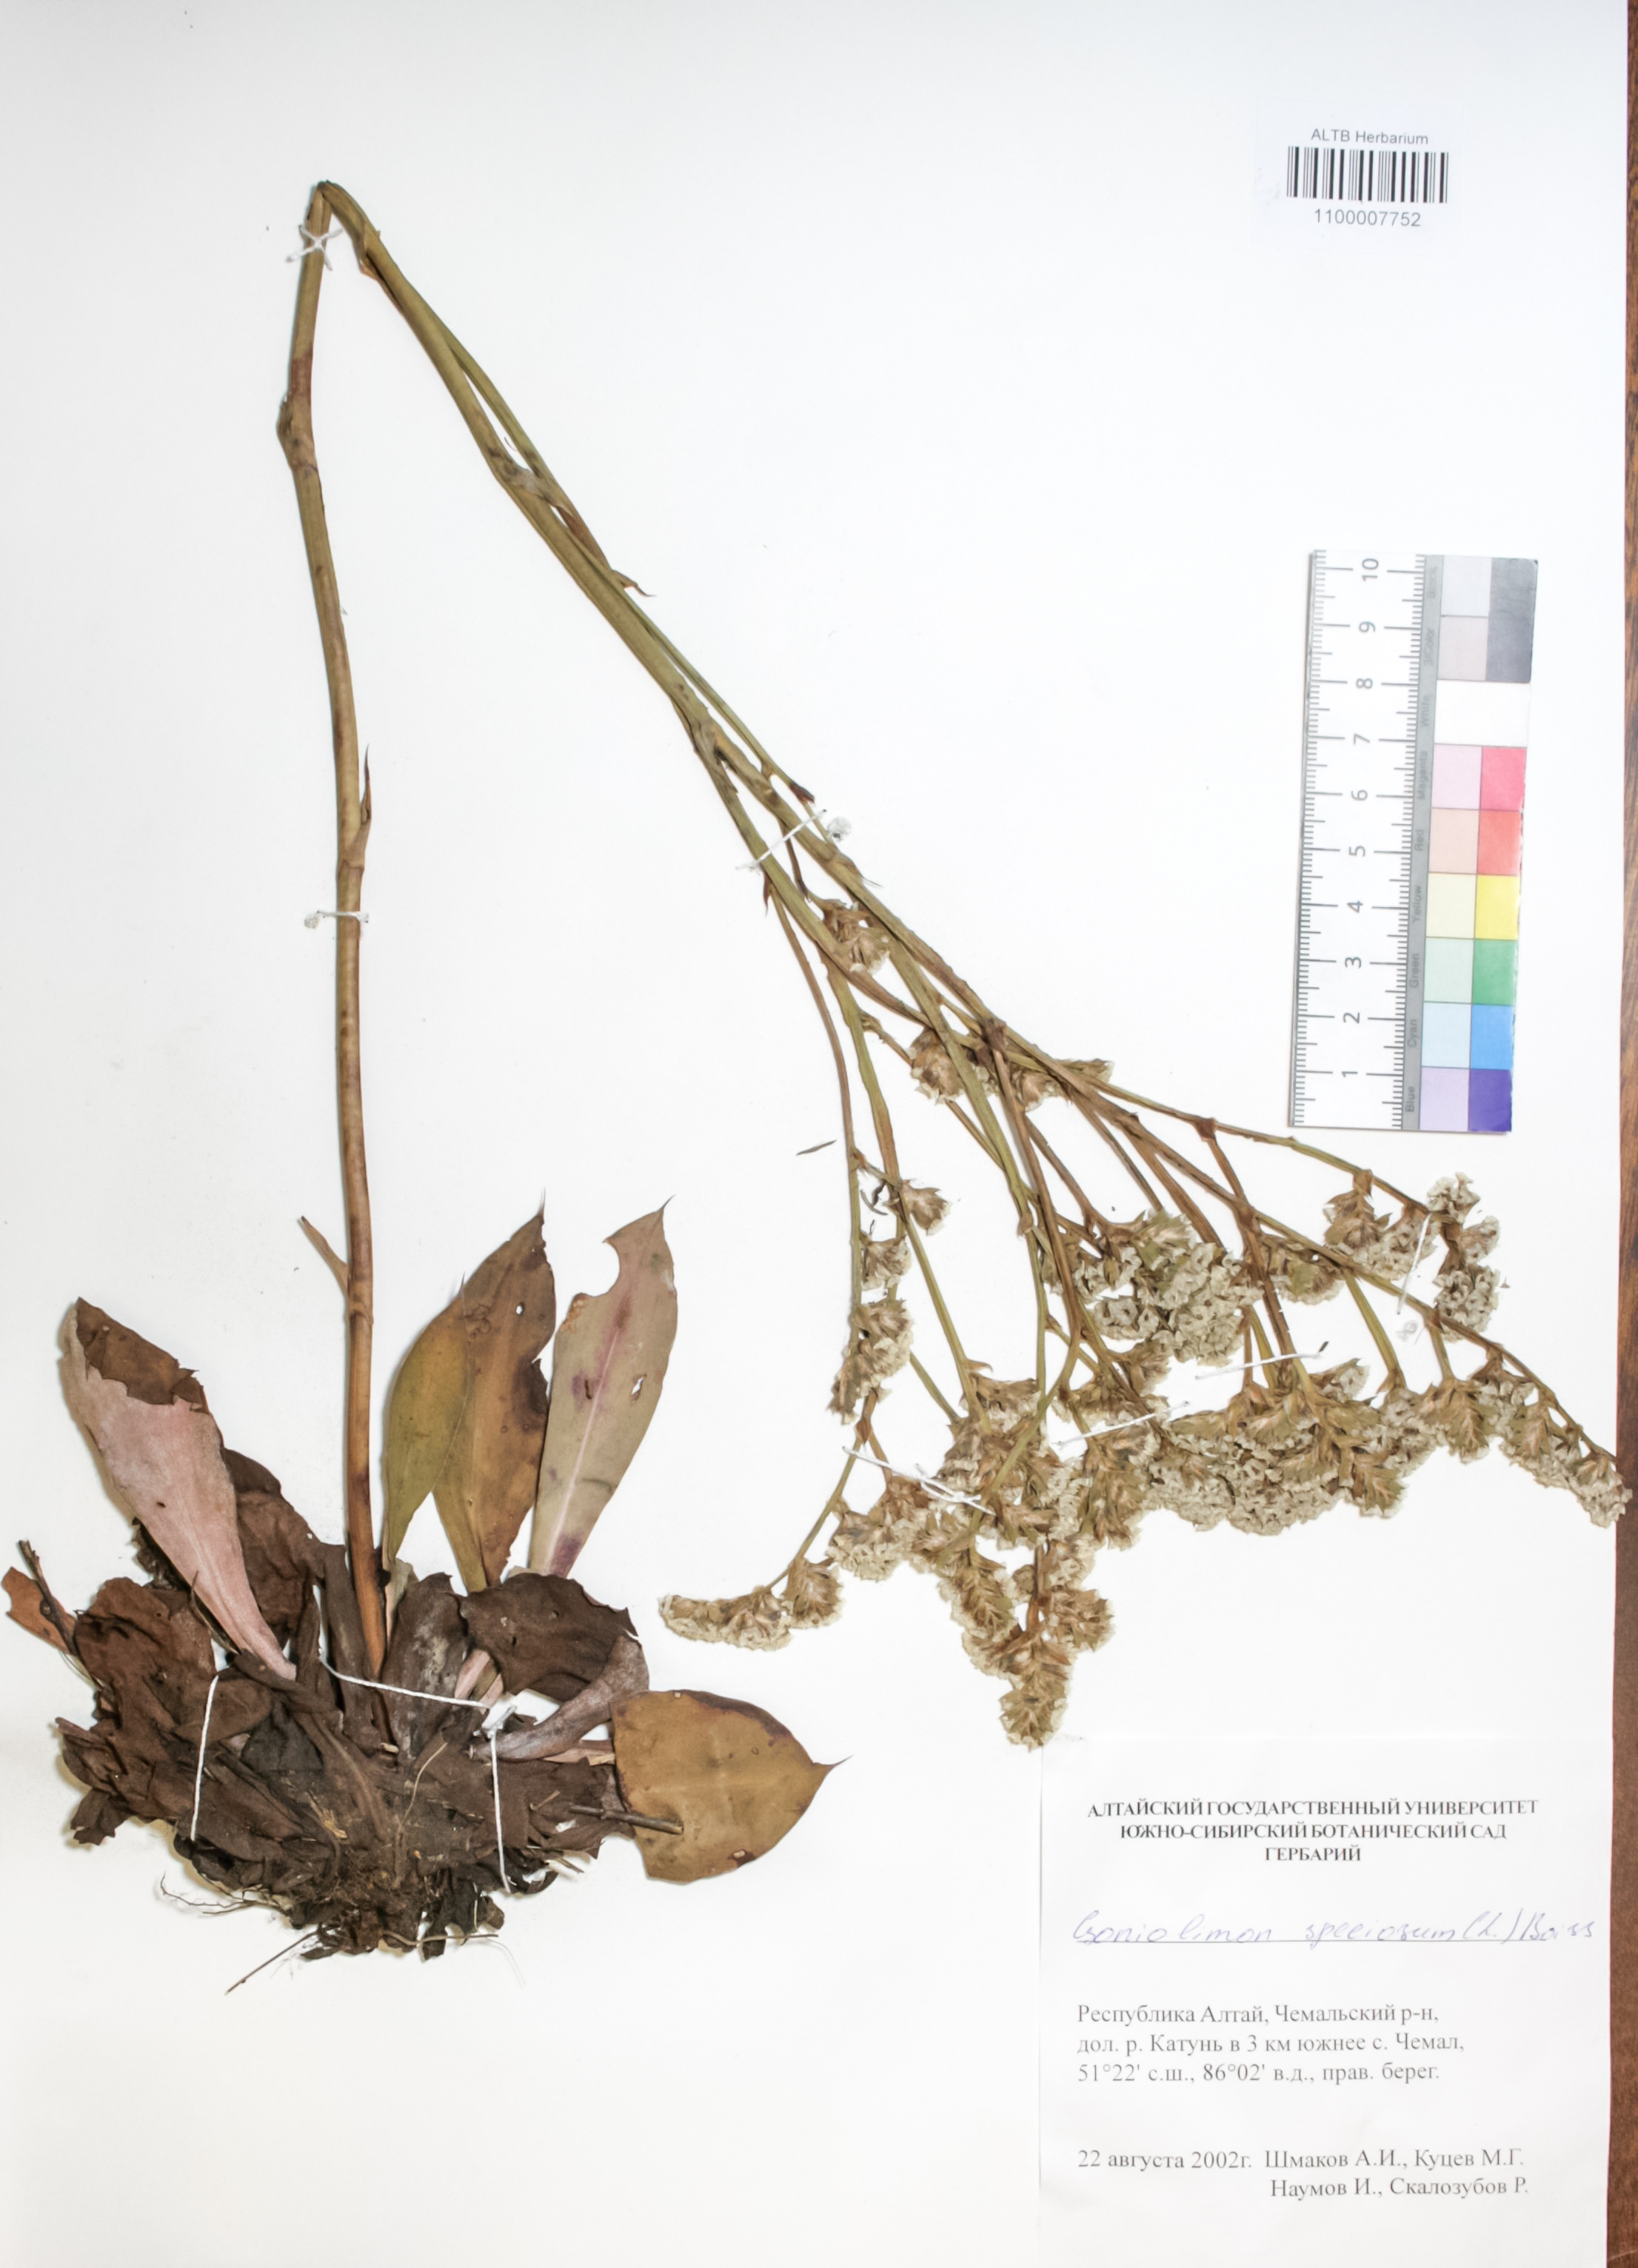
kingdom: Plantae
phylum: Tracheophyta
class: Magnoliopsida
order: Caryophyllales
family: Plumbaginaceae
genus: Goniolimon
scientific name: Goniolimon speciosum
